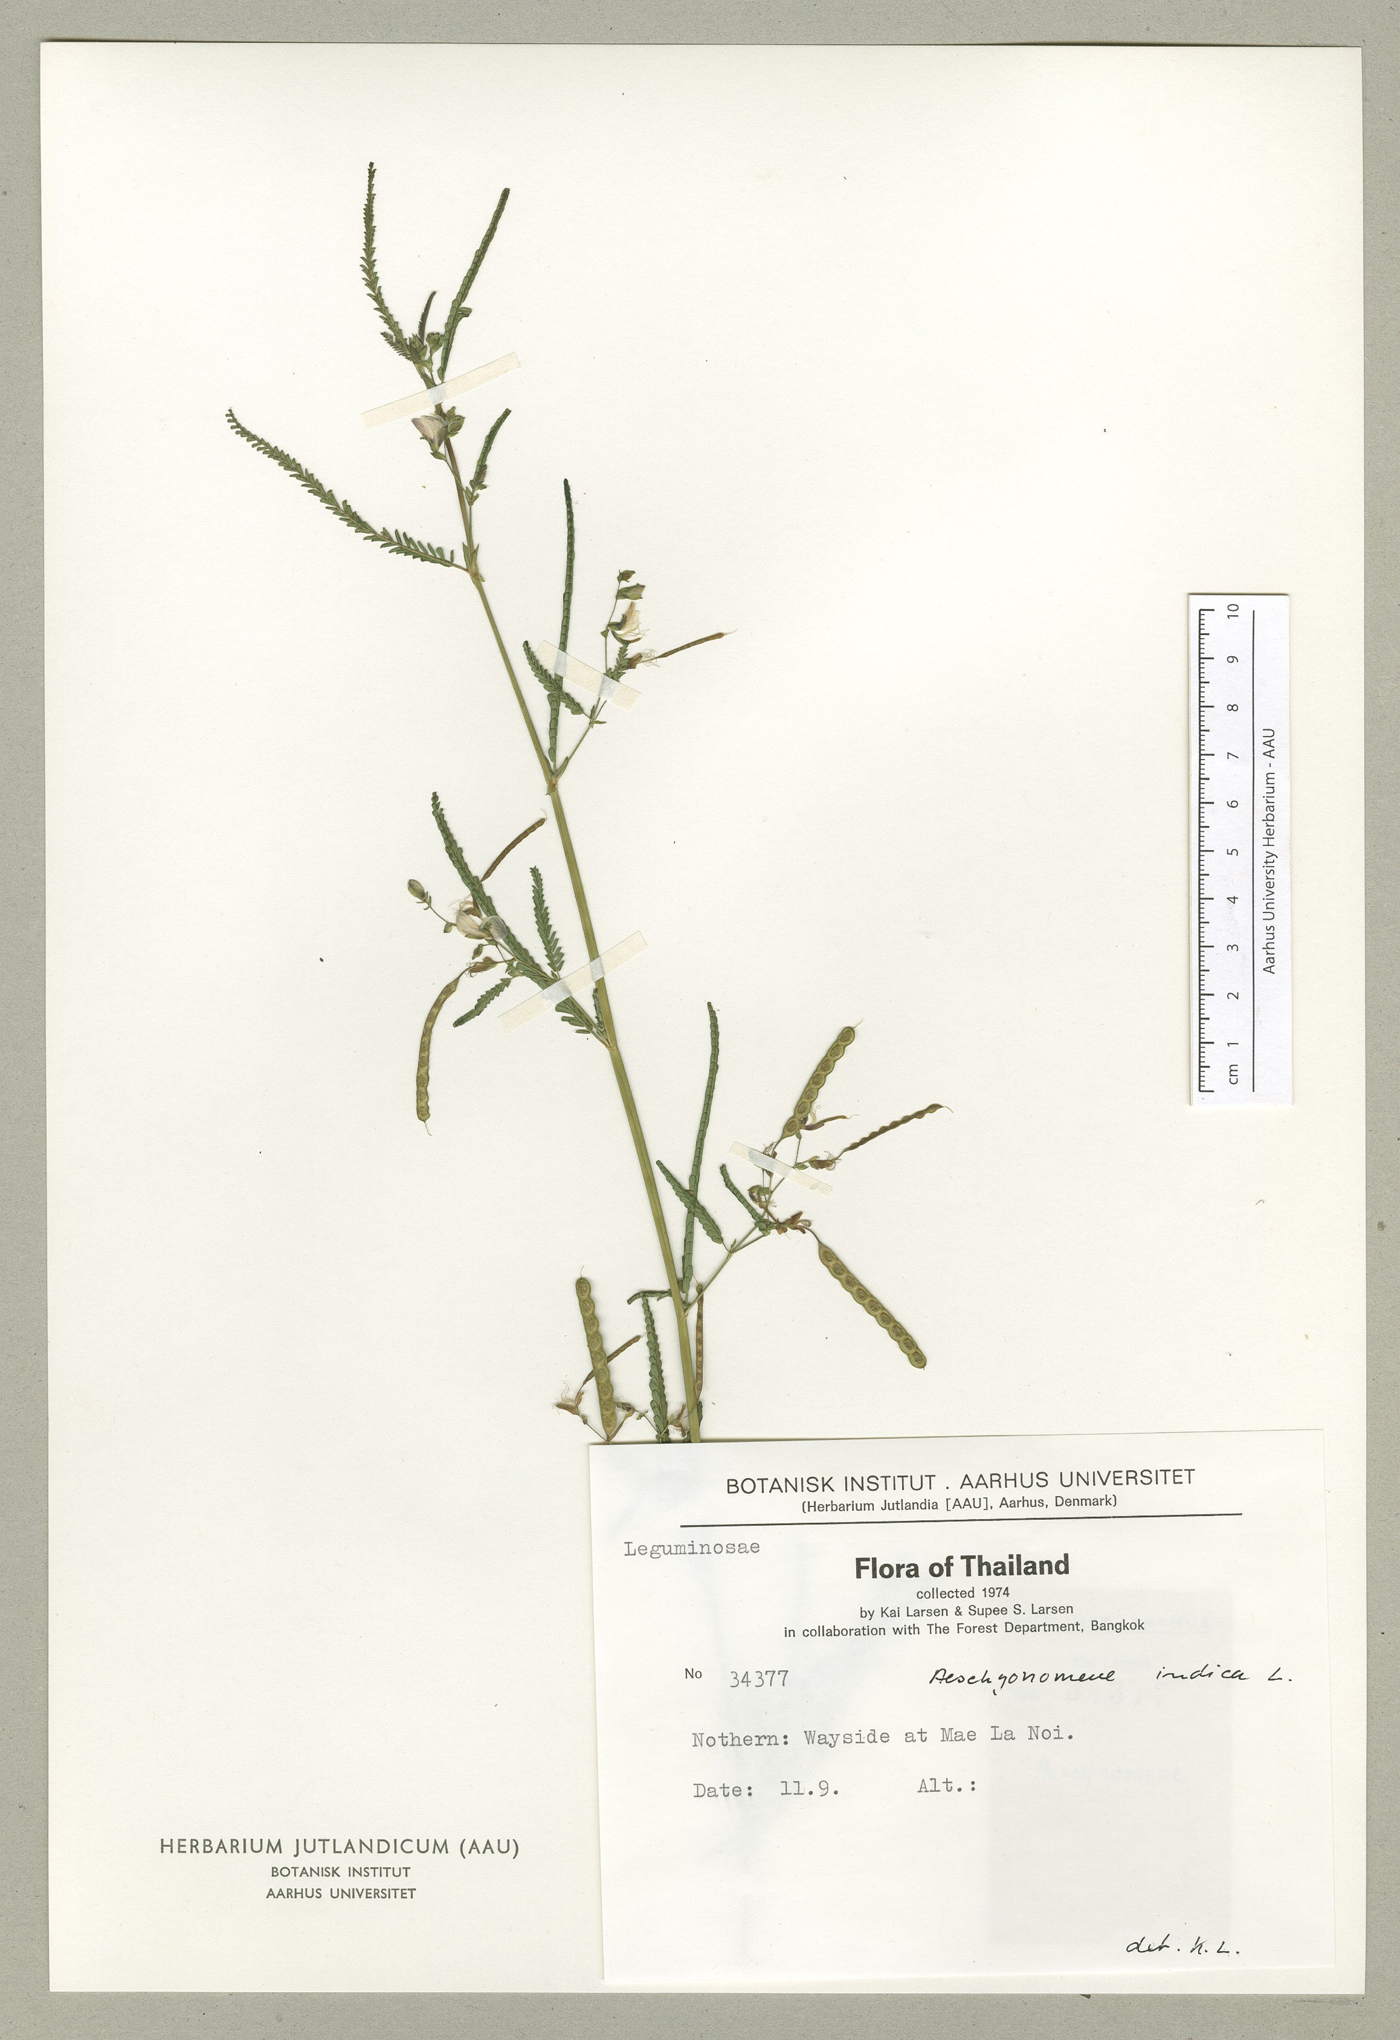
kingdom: Plantae
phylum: Tracheophyta
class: Magnoliopsida
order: Fabales
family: Fabaceae
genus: Aeschynomene
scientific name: Aeschynomene indica
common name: Indian jointvetch
